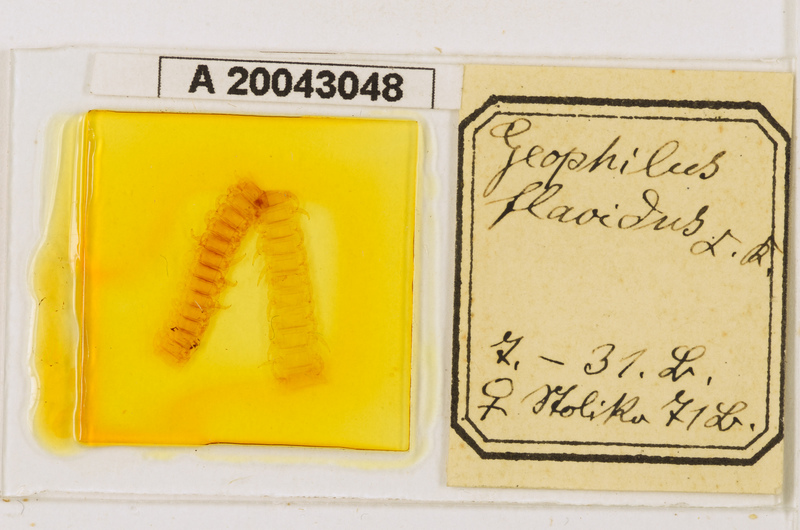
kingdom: Animalia
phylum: Arthropoda
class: Chilopoda
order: Geophilomorpha
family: Geophilidae
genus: Clinopodes
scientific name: Clinopodes flavidus
